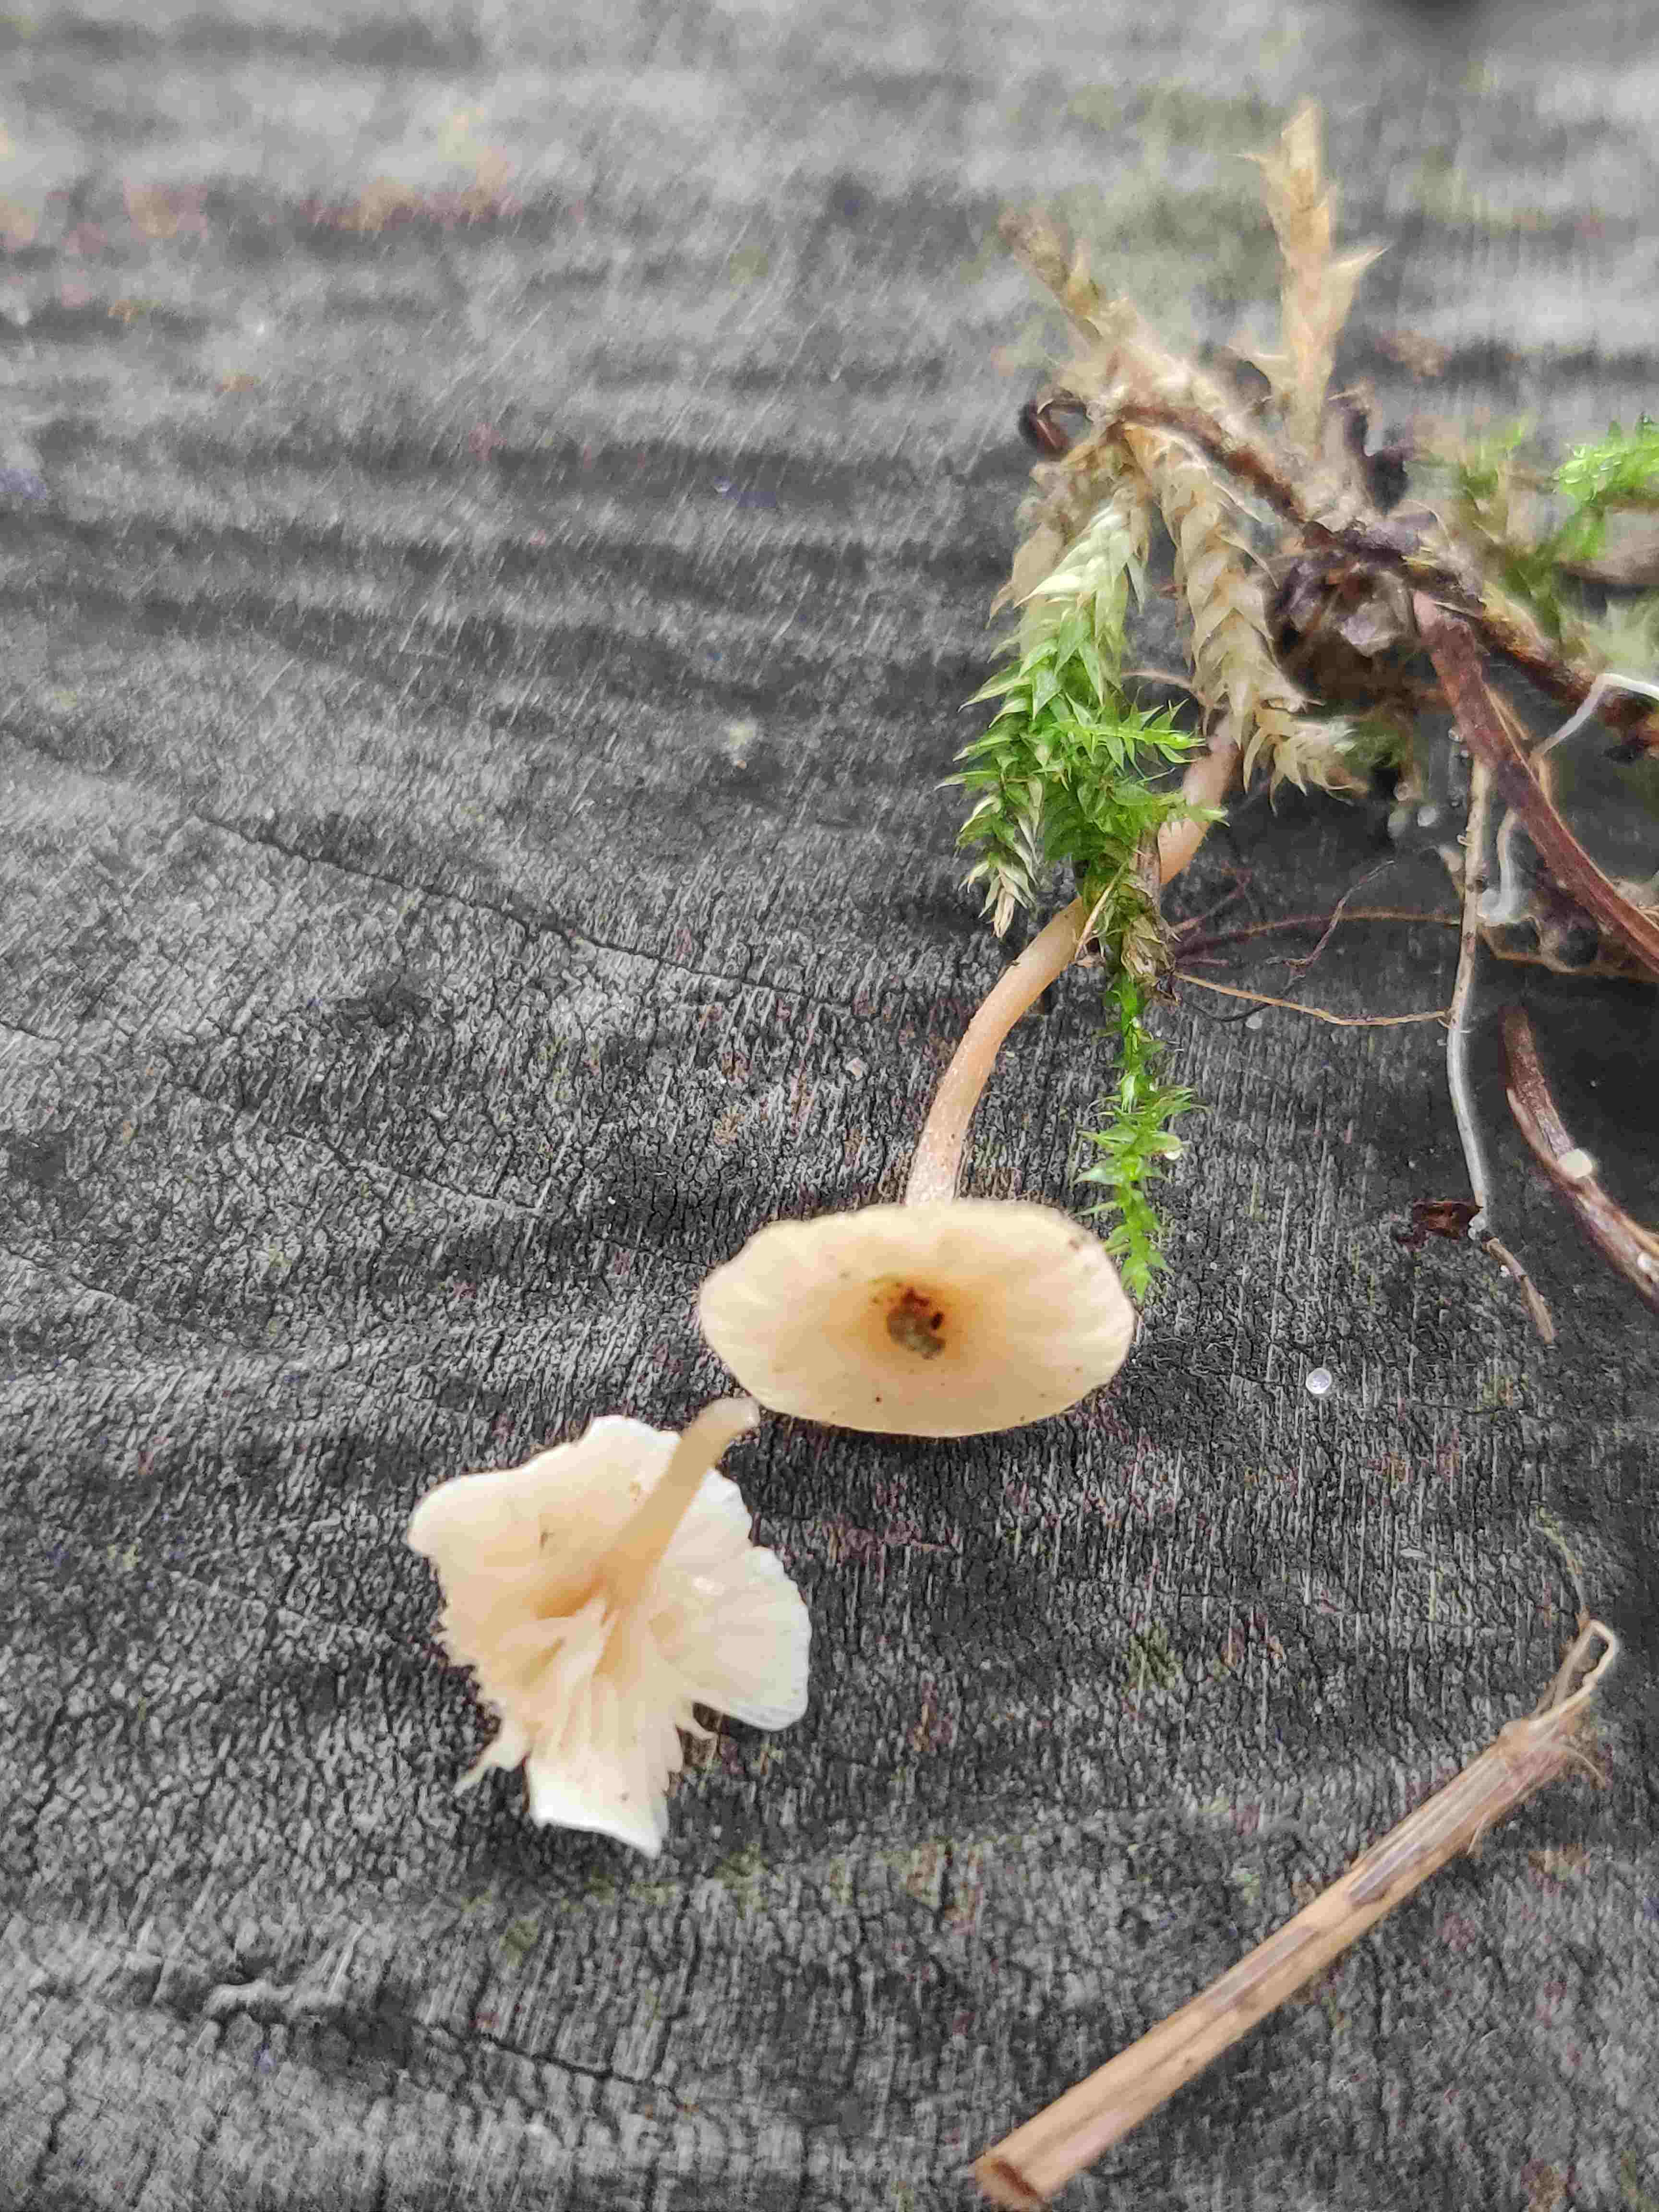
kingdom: Fungi
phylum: Basidiomycota
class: Agaricomycetes
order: Agaricales
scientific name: Agaricales
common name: champignonordenen
